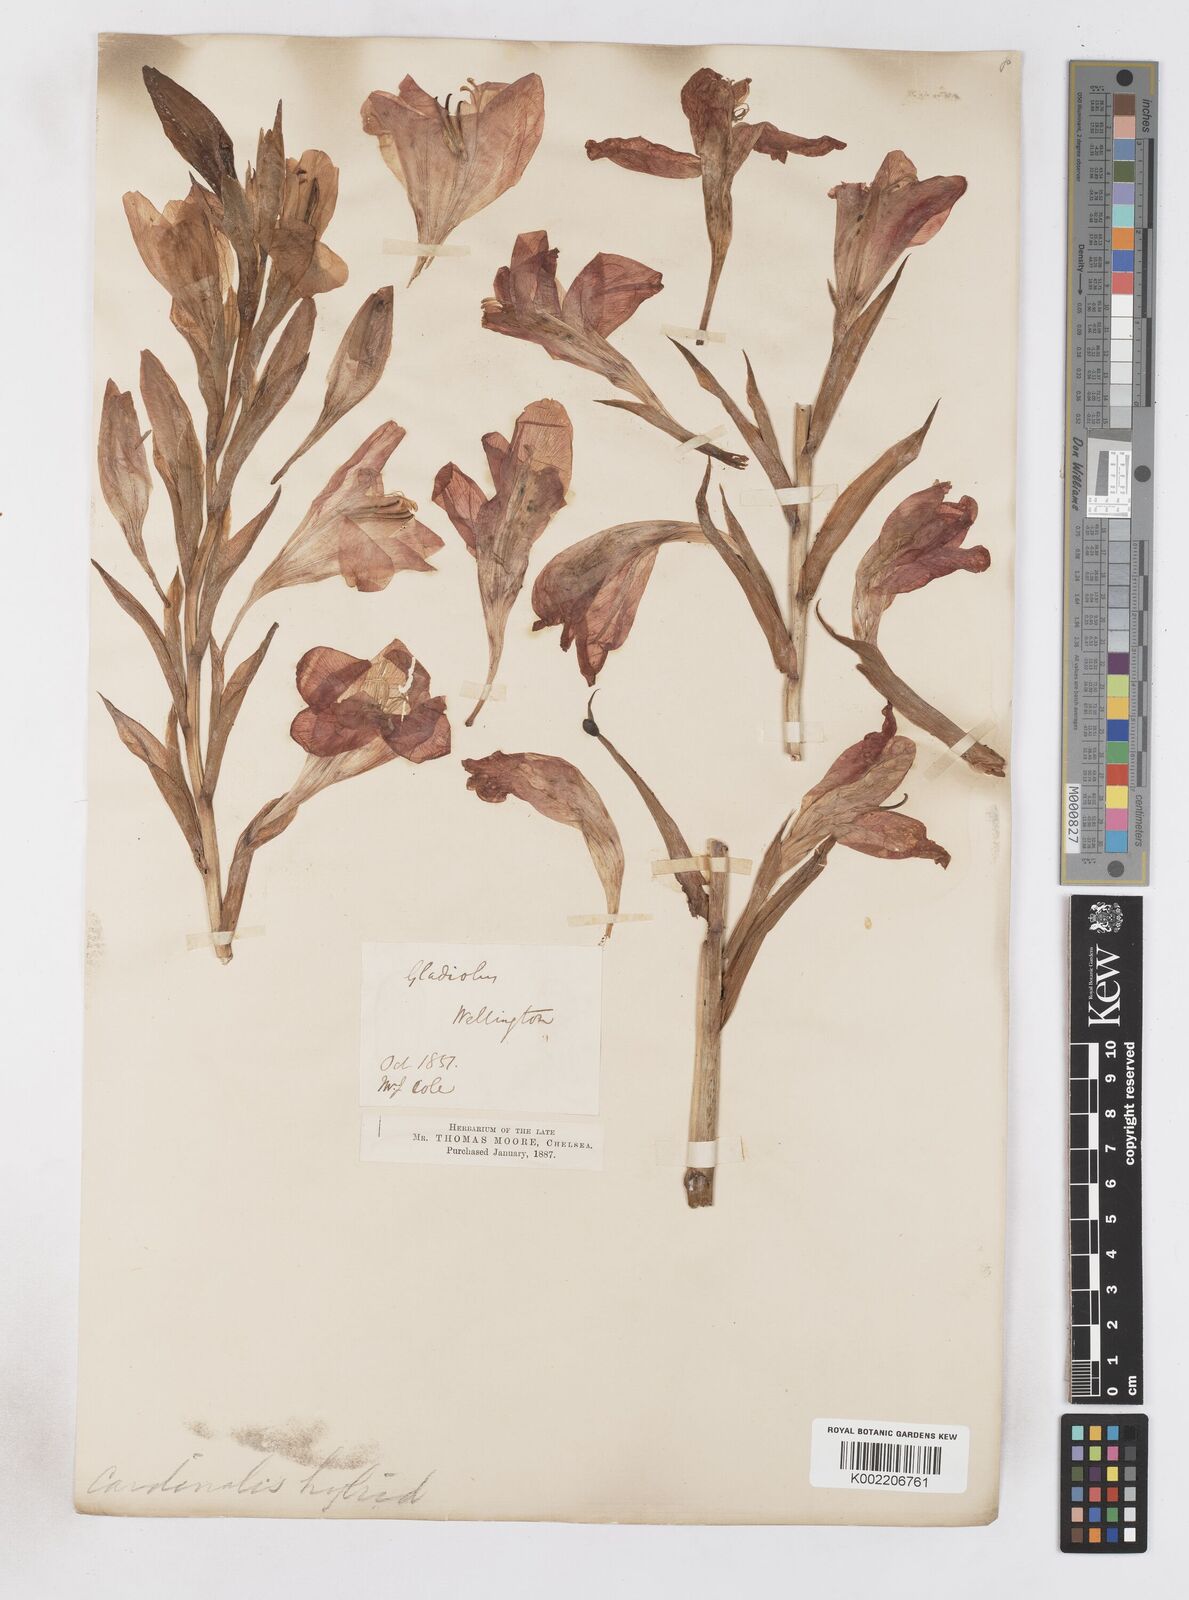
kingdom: Plantae
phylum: Tracheophyta
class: Liliopsida
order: Asparagales
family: Iridaceae
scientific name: Iridaceae
